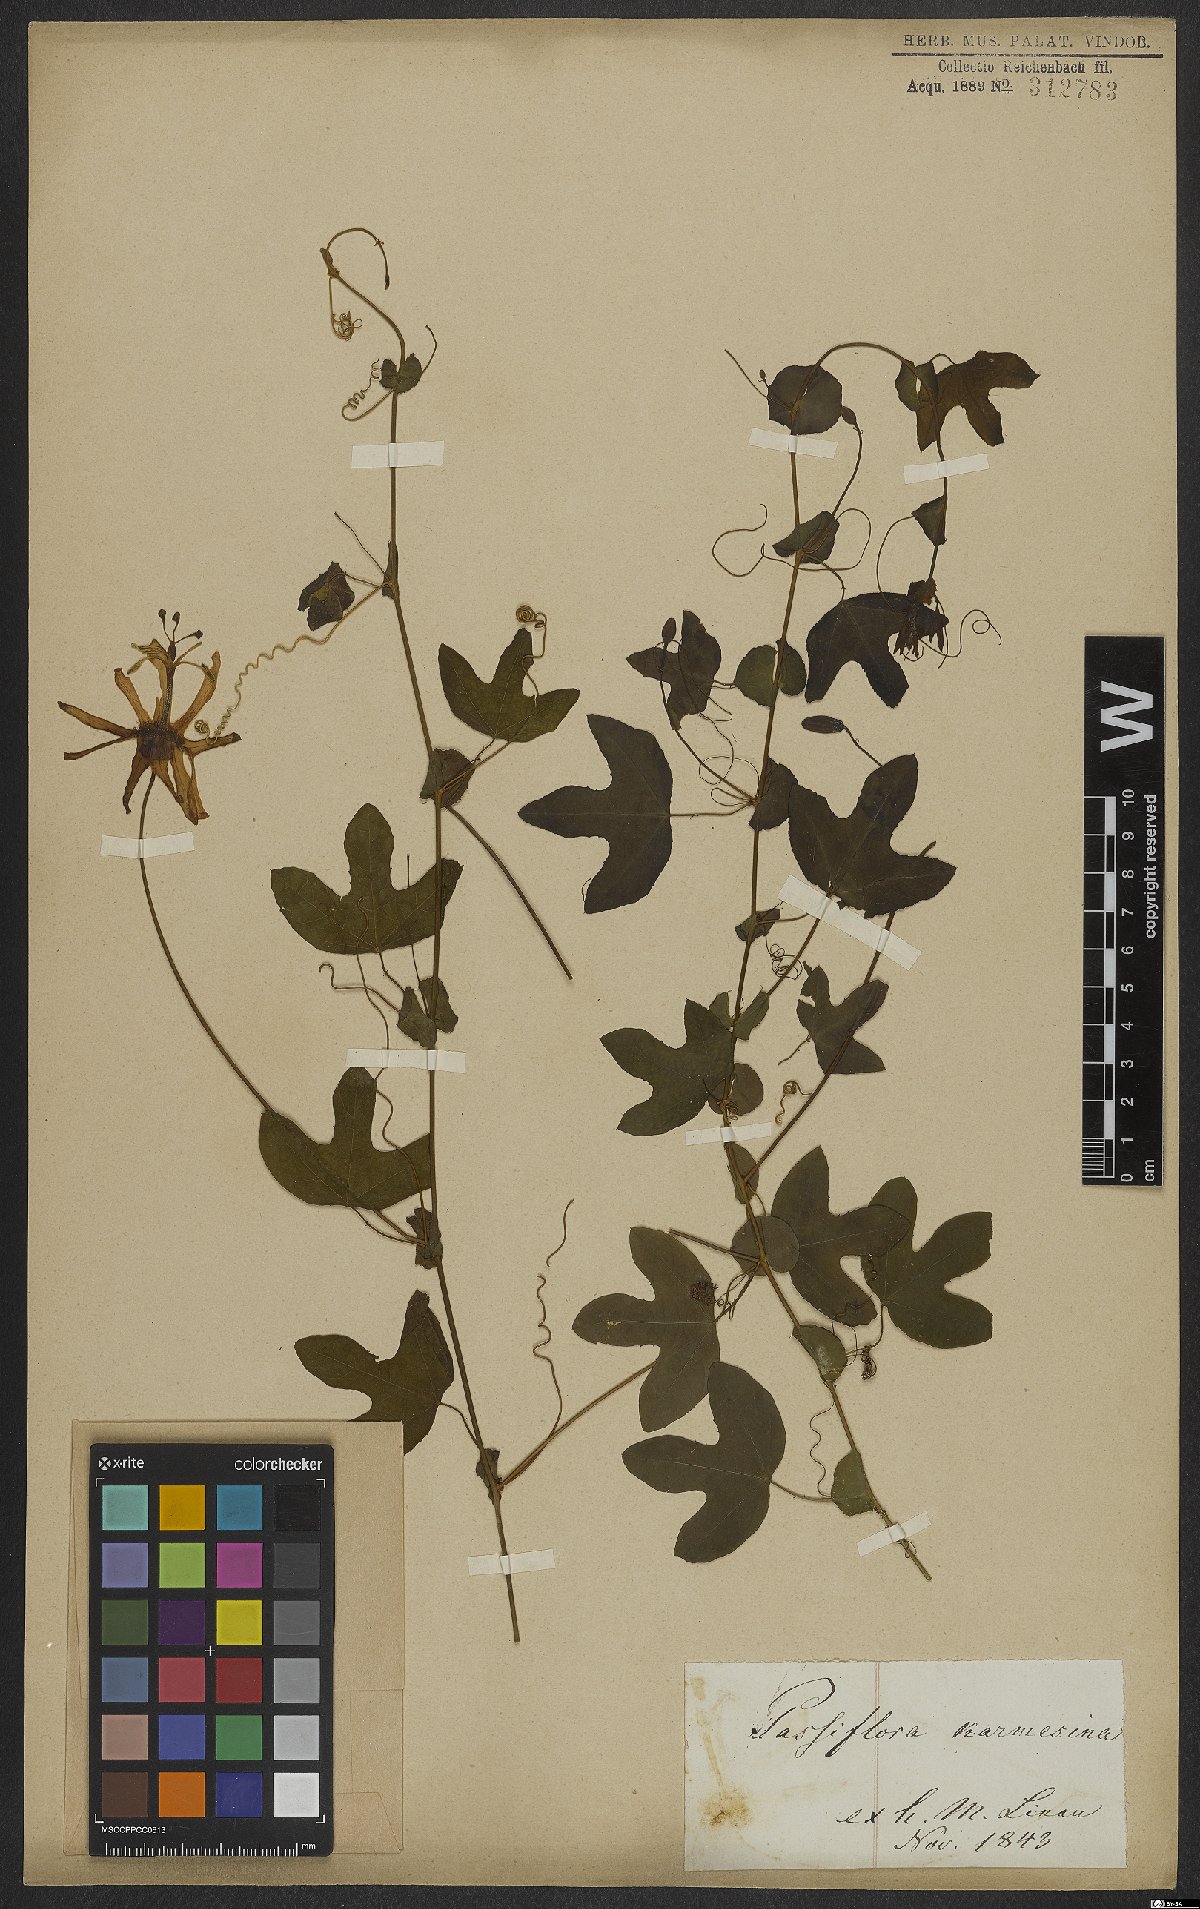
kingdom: Plantae
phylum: Tracheophyta
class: Magnoliopsida
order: Malpighiales
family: Passifloraceae
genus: Passiflora
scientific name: Passiflora kermesina
